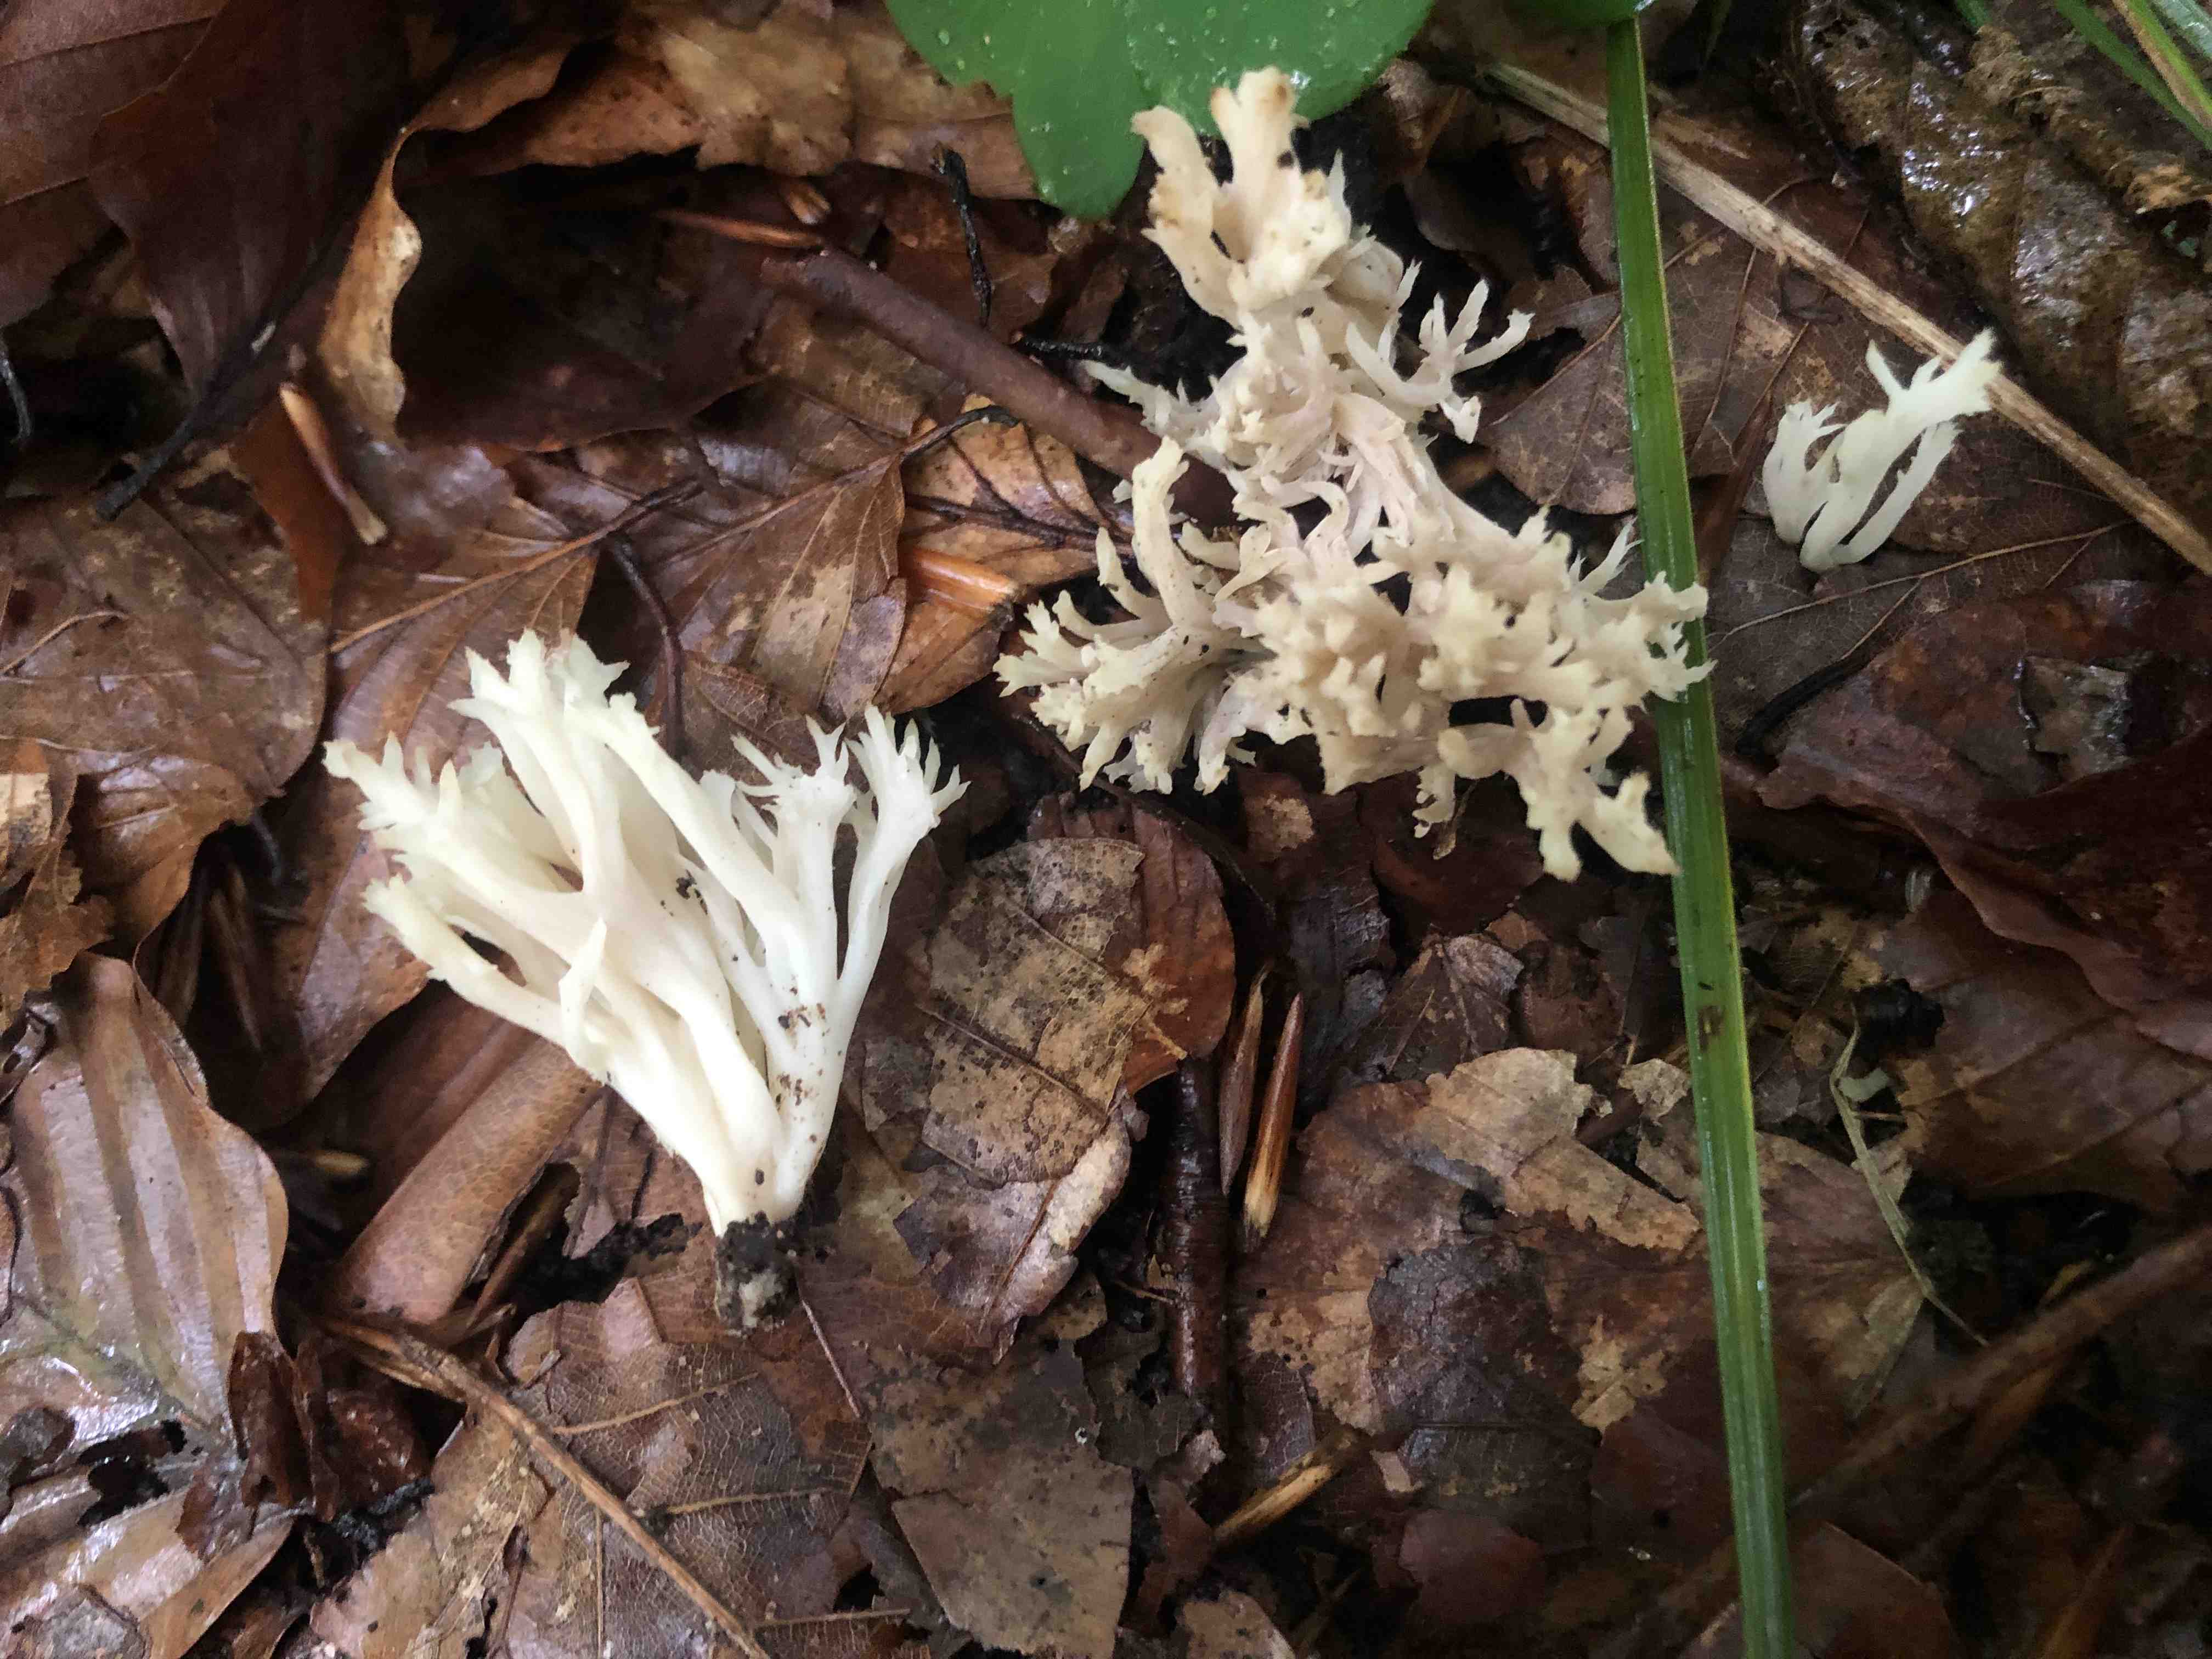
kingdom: Fungi
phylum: Basidiomycota
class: Agaricomycetes
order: Cantharellales
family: Hydnaceae
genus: Clavulina
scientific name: Clavulina
